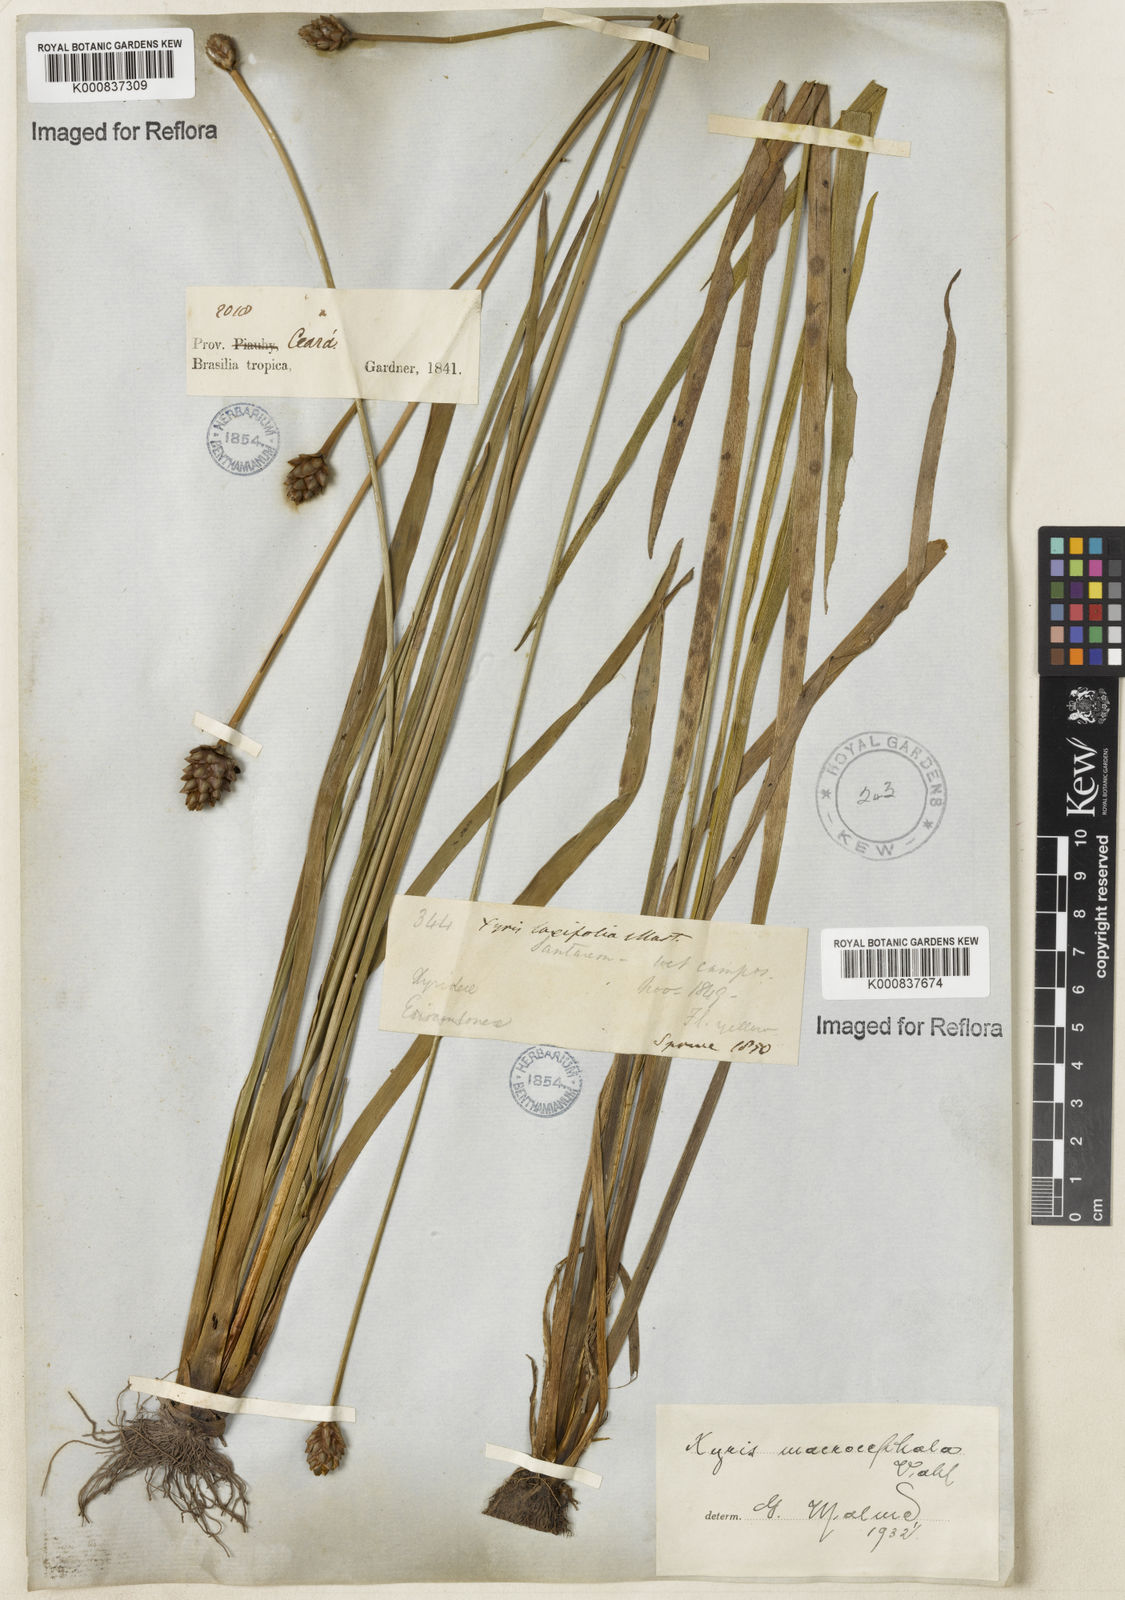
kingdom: Plantae
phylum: Tracheophyta
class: Liliopsida
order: Poales
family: Xyridaceae
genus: Xyris
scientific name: Xyris jupicai
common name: Richard's yelloweyed grass
